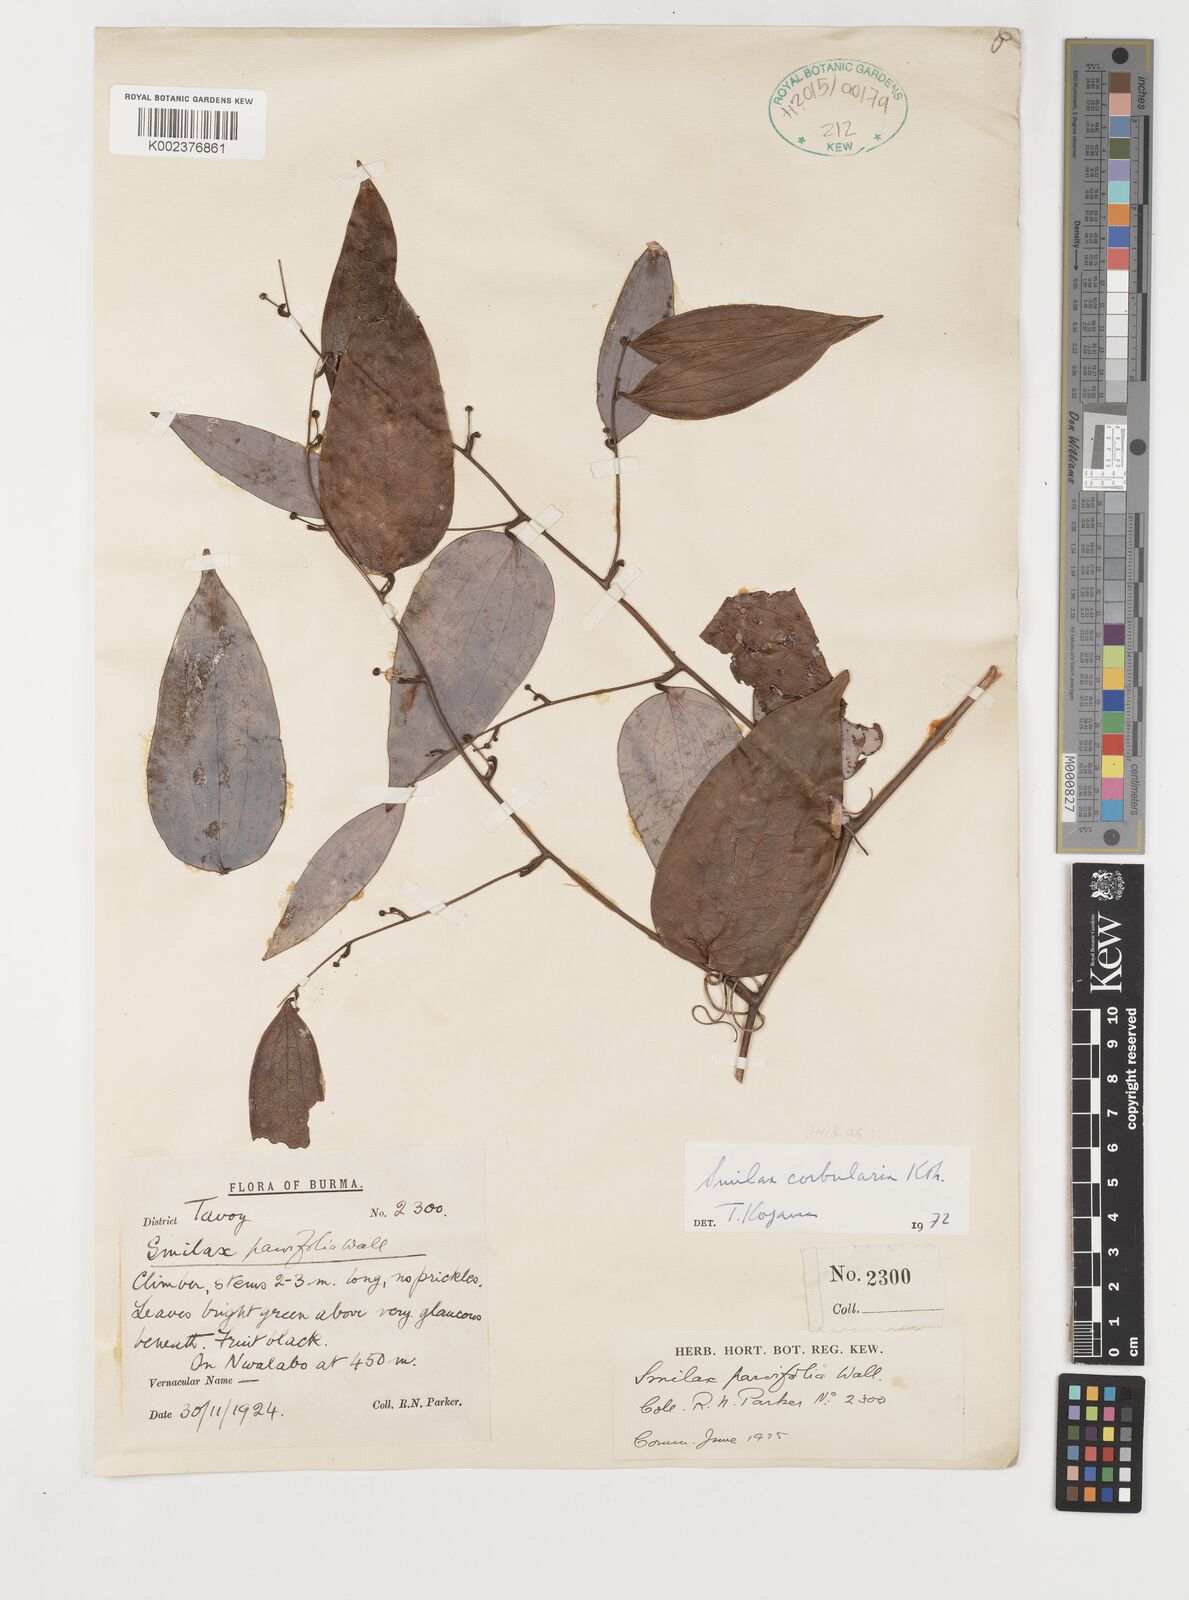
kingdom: Plantae
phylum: Tracheophyta
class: Liliopsida
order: Liliales
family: Smilacaceae
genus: Smilax
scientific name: Smilax corbularia
